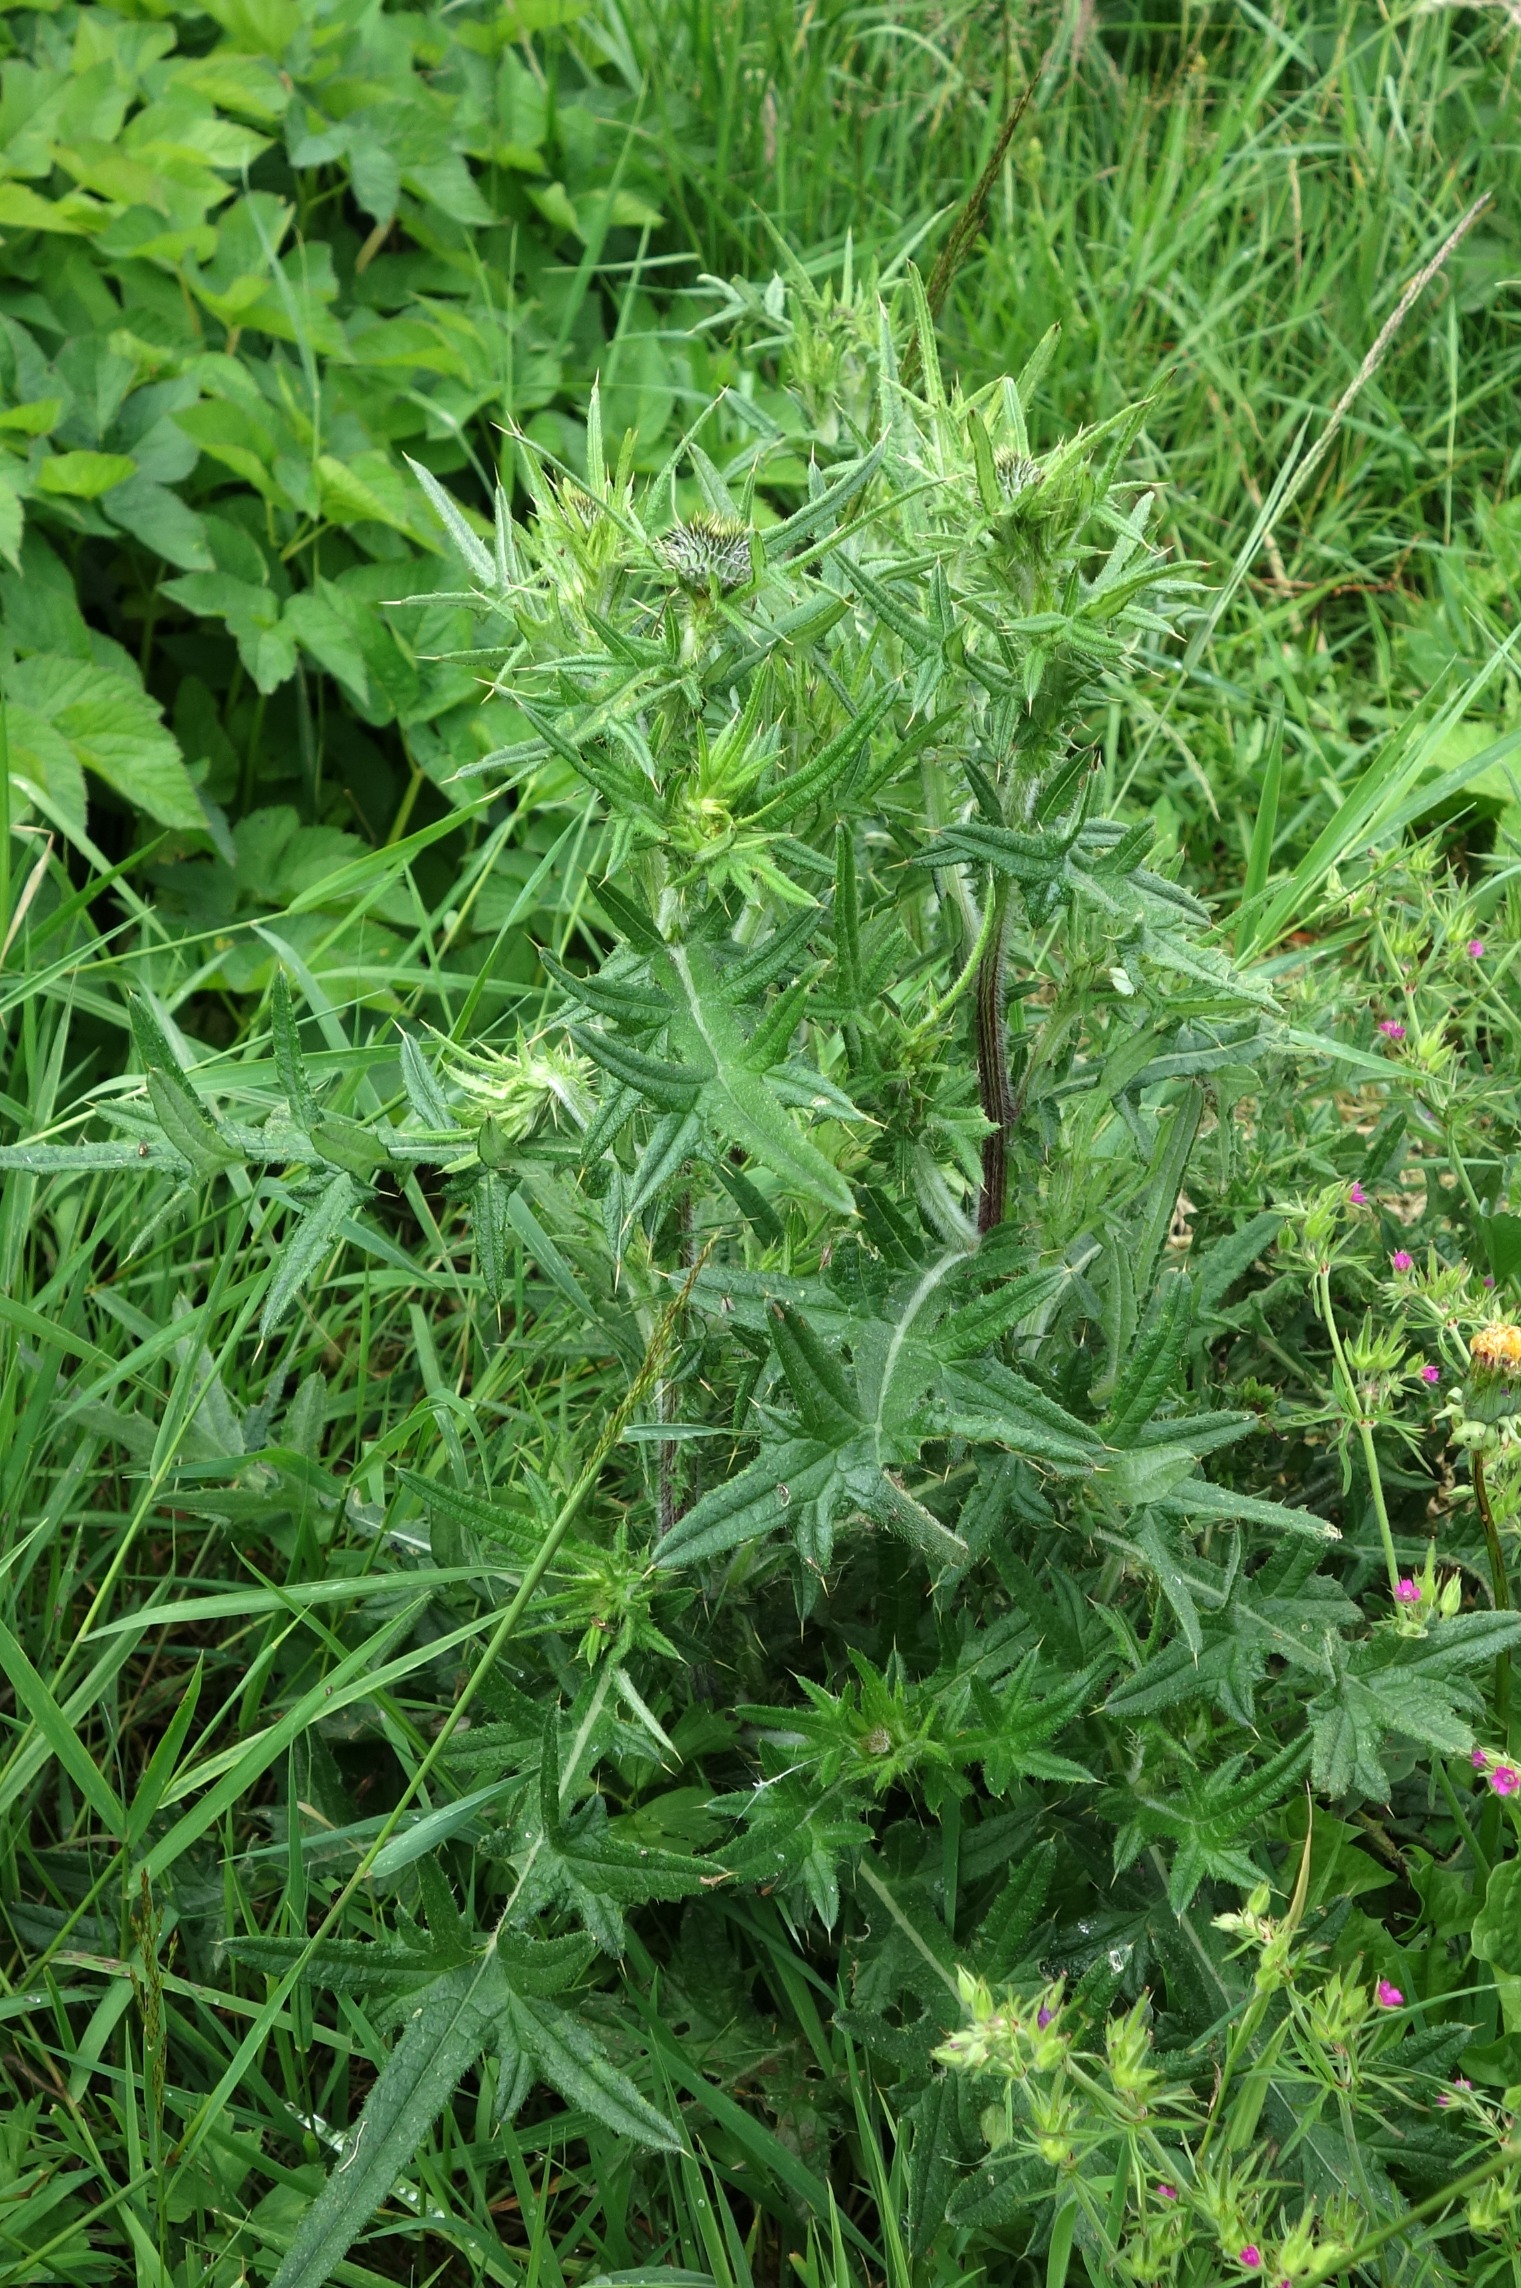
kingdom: Plantae
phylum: Tracheophyta
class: Magnoliopsida
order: Asterales
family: Asteraceae
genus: Cirsium
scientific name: Cirsium vulgare
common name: Horse-tidsel
